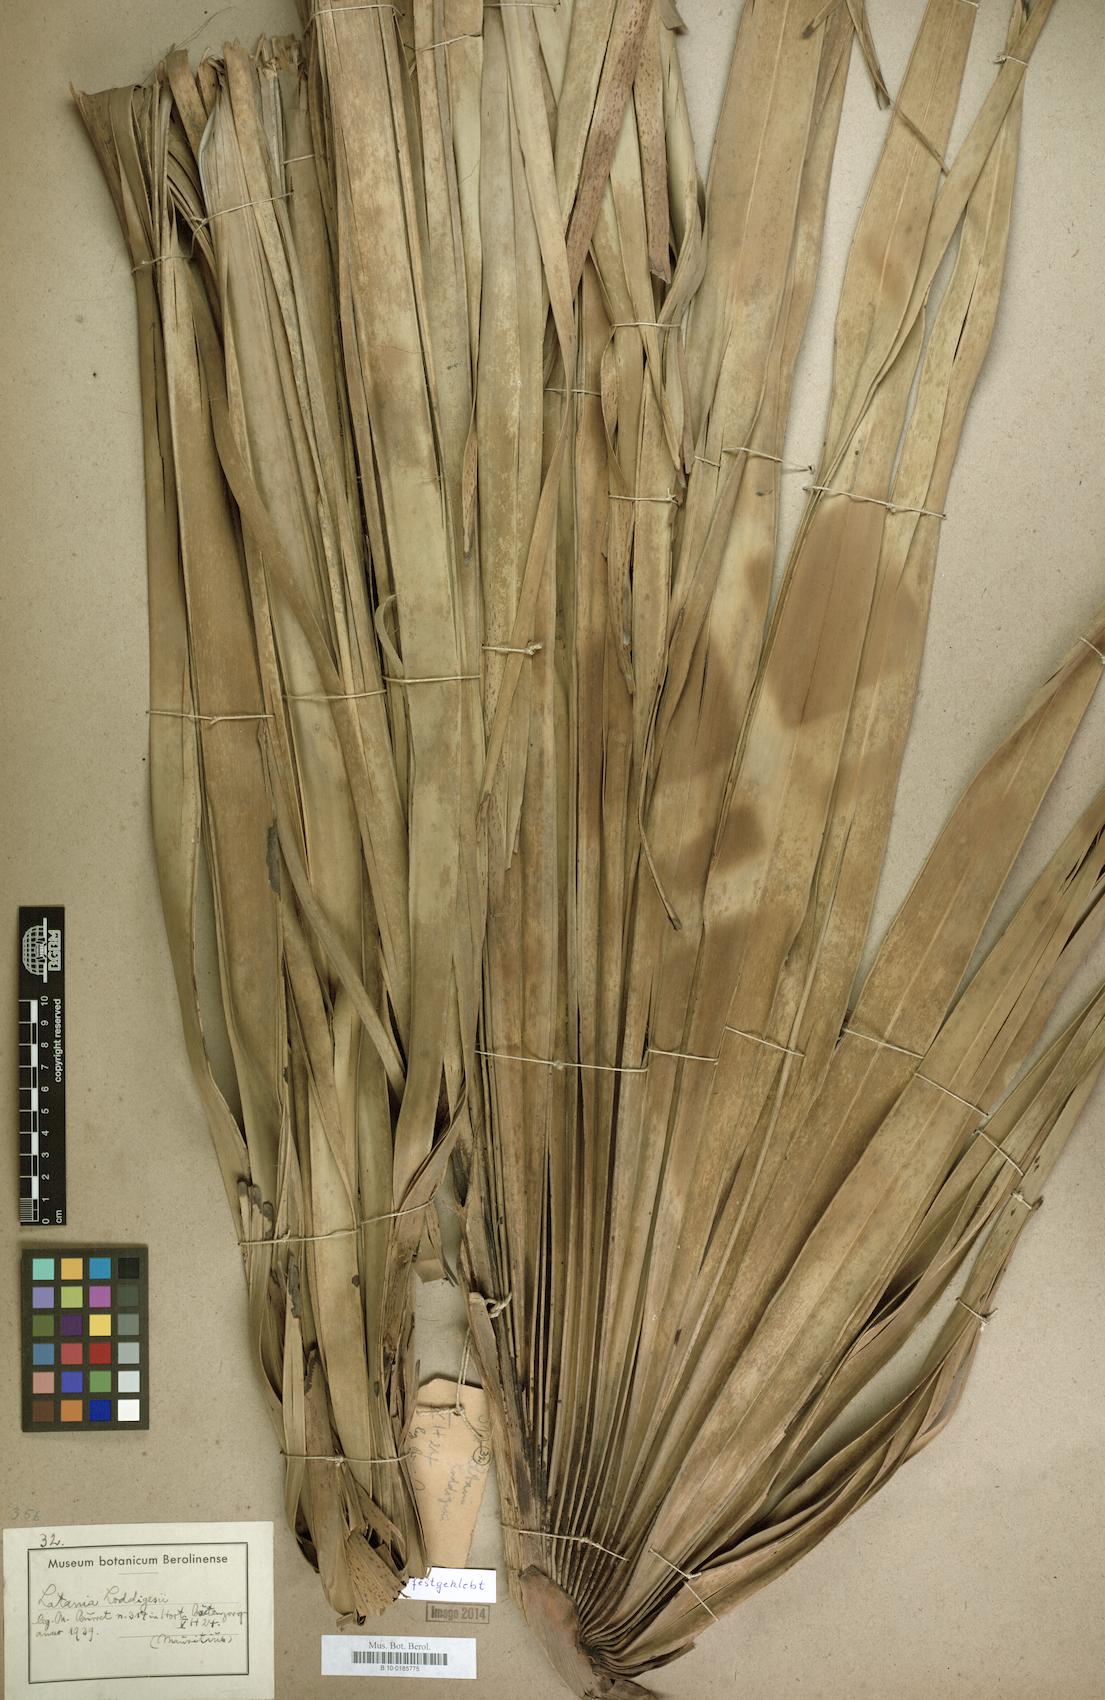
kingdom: Plantae
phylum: Tracheophyta
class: Liliopsida
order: Arecales
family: Arecaceae
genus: Latania
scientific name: Latania loddigesii
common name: Blue latan
